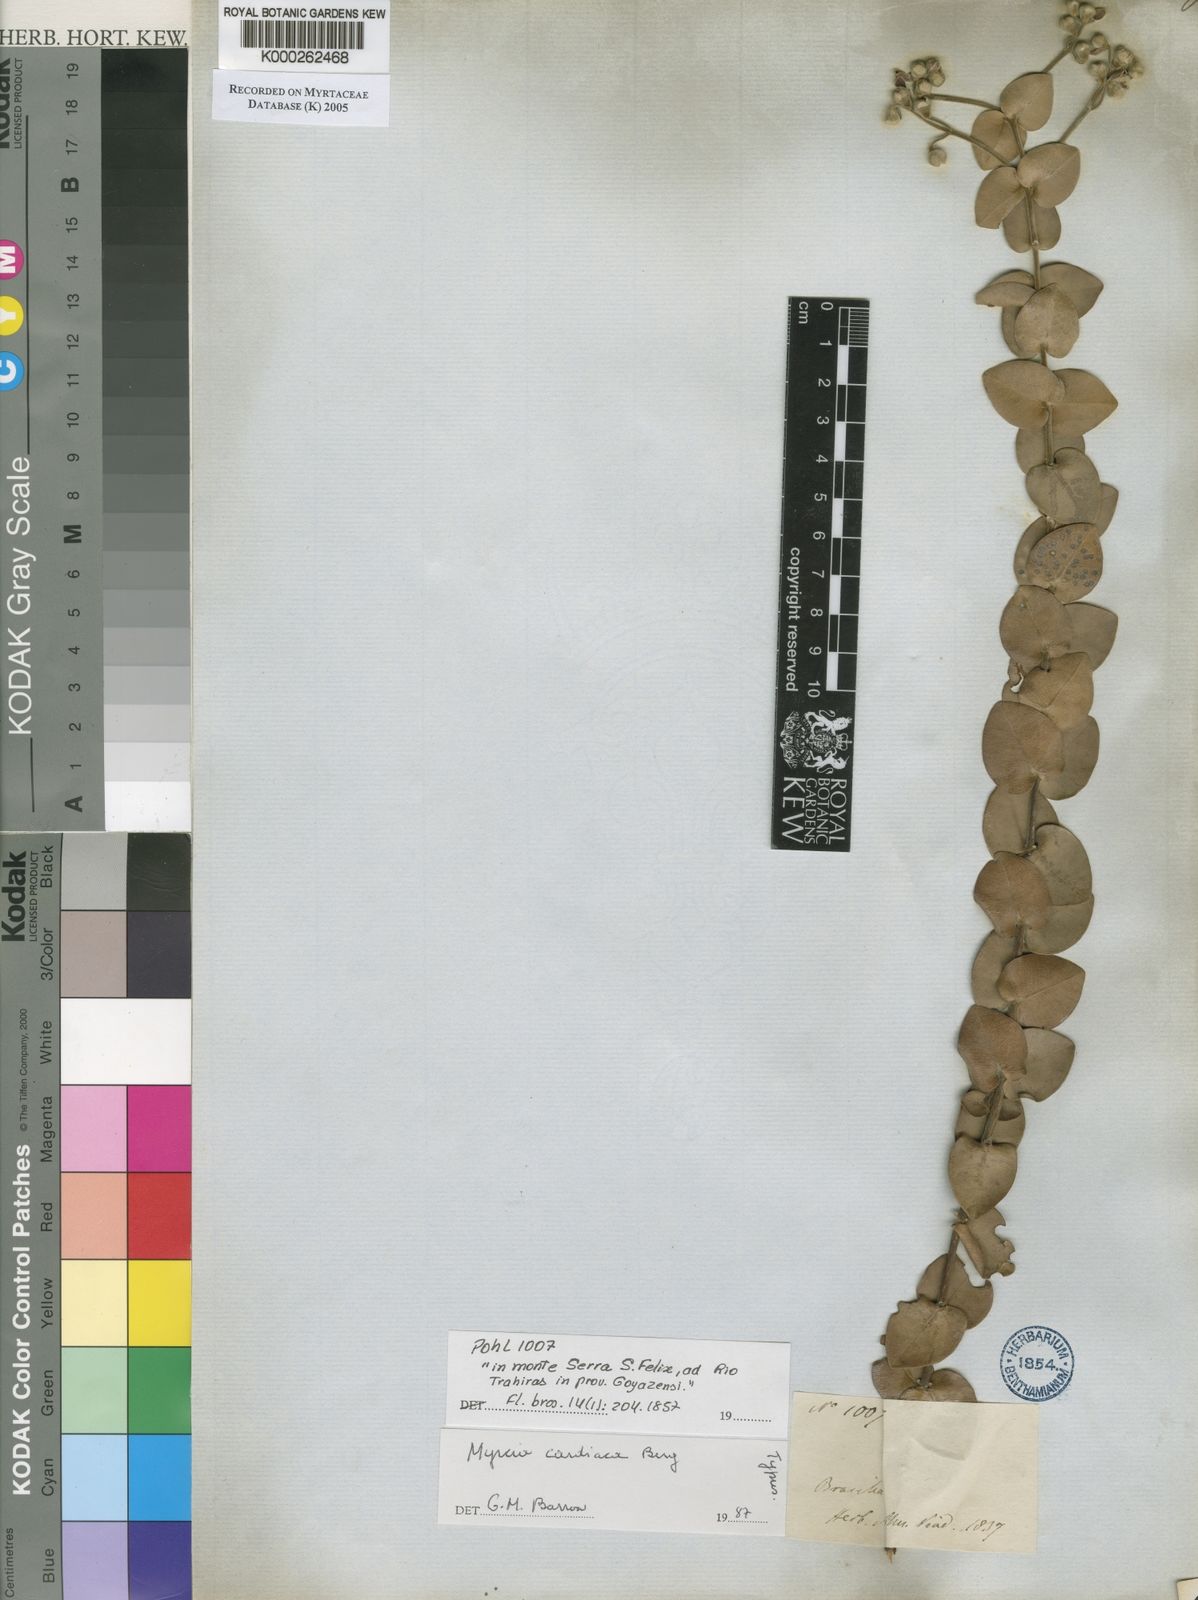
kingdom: Plantae
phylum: Tracheophyta
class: Magnoliopsida
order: Myrtales
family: Myrtaceae
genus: Myrcia
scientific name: Myrcia cardiaca
